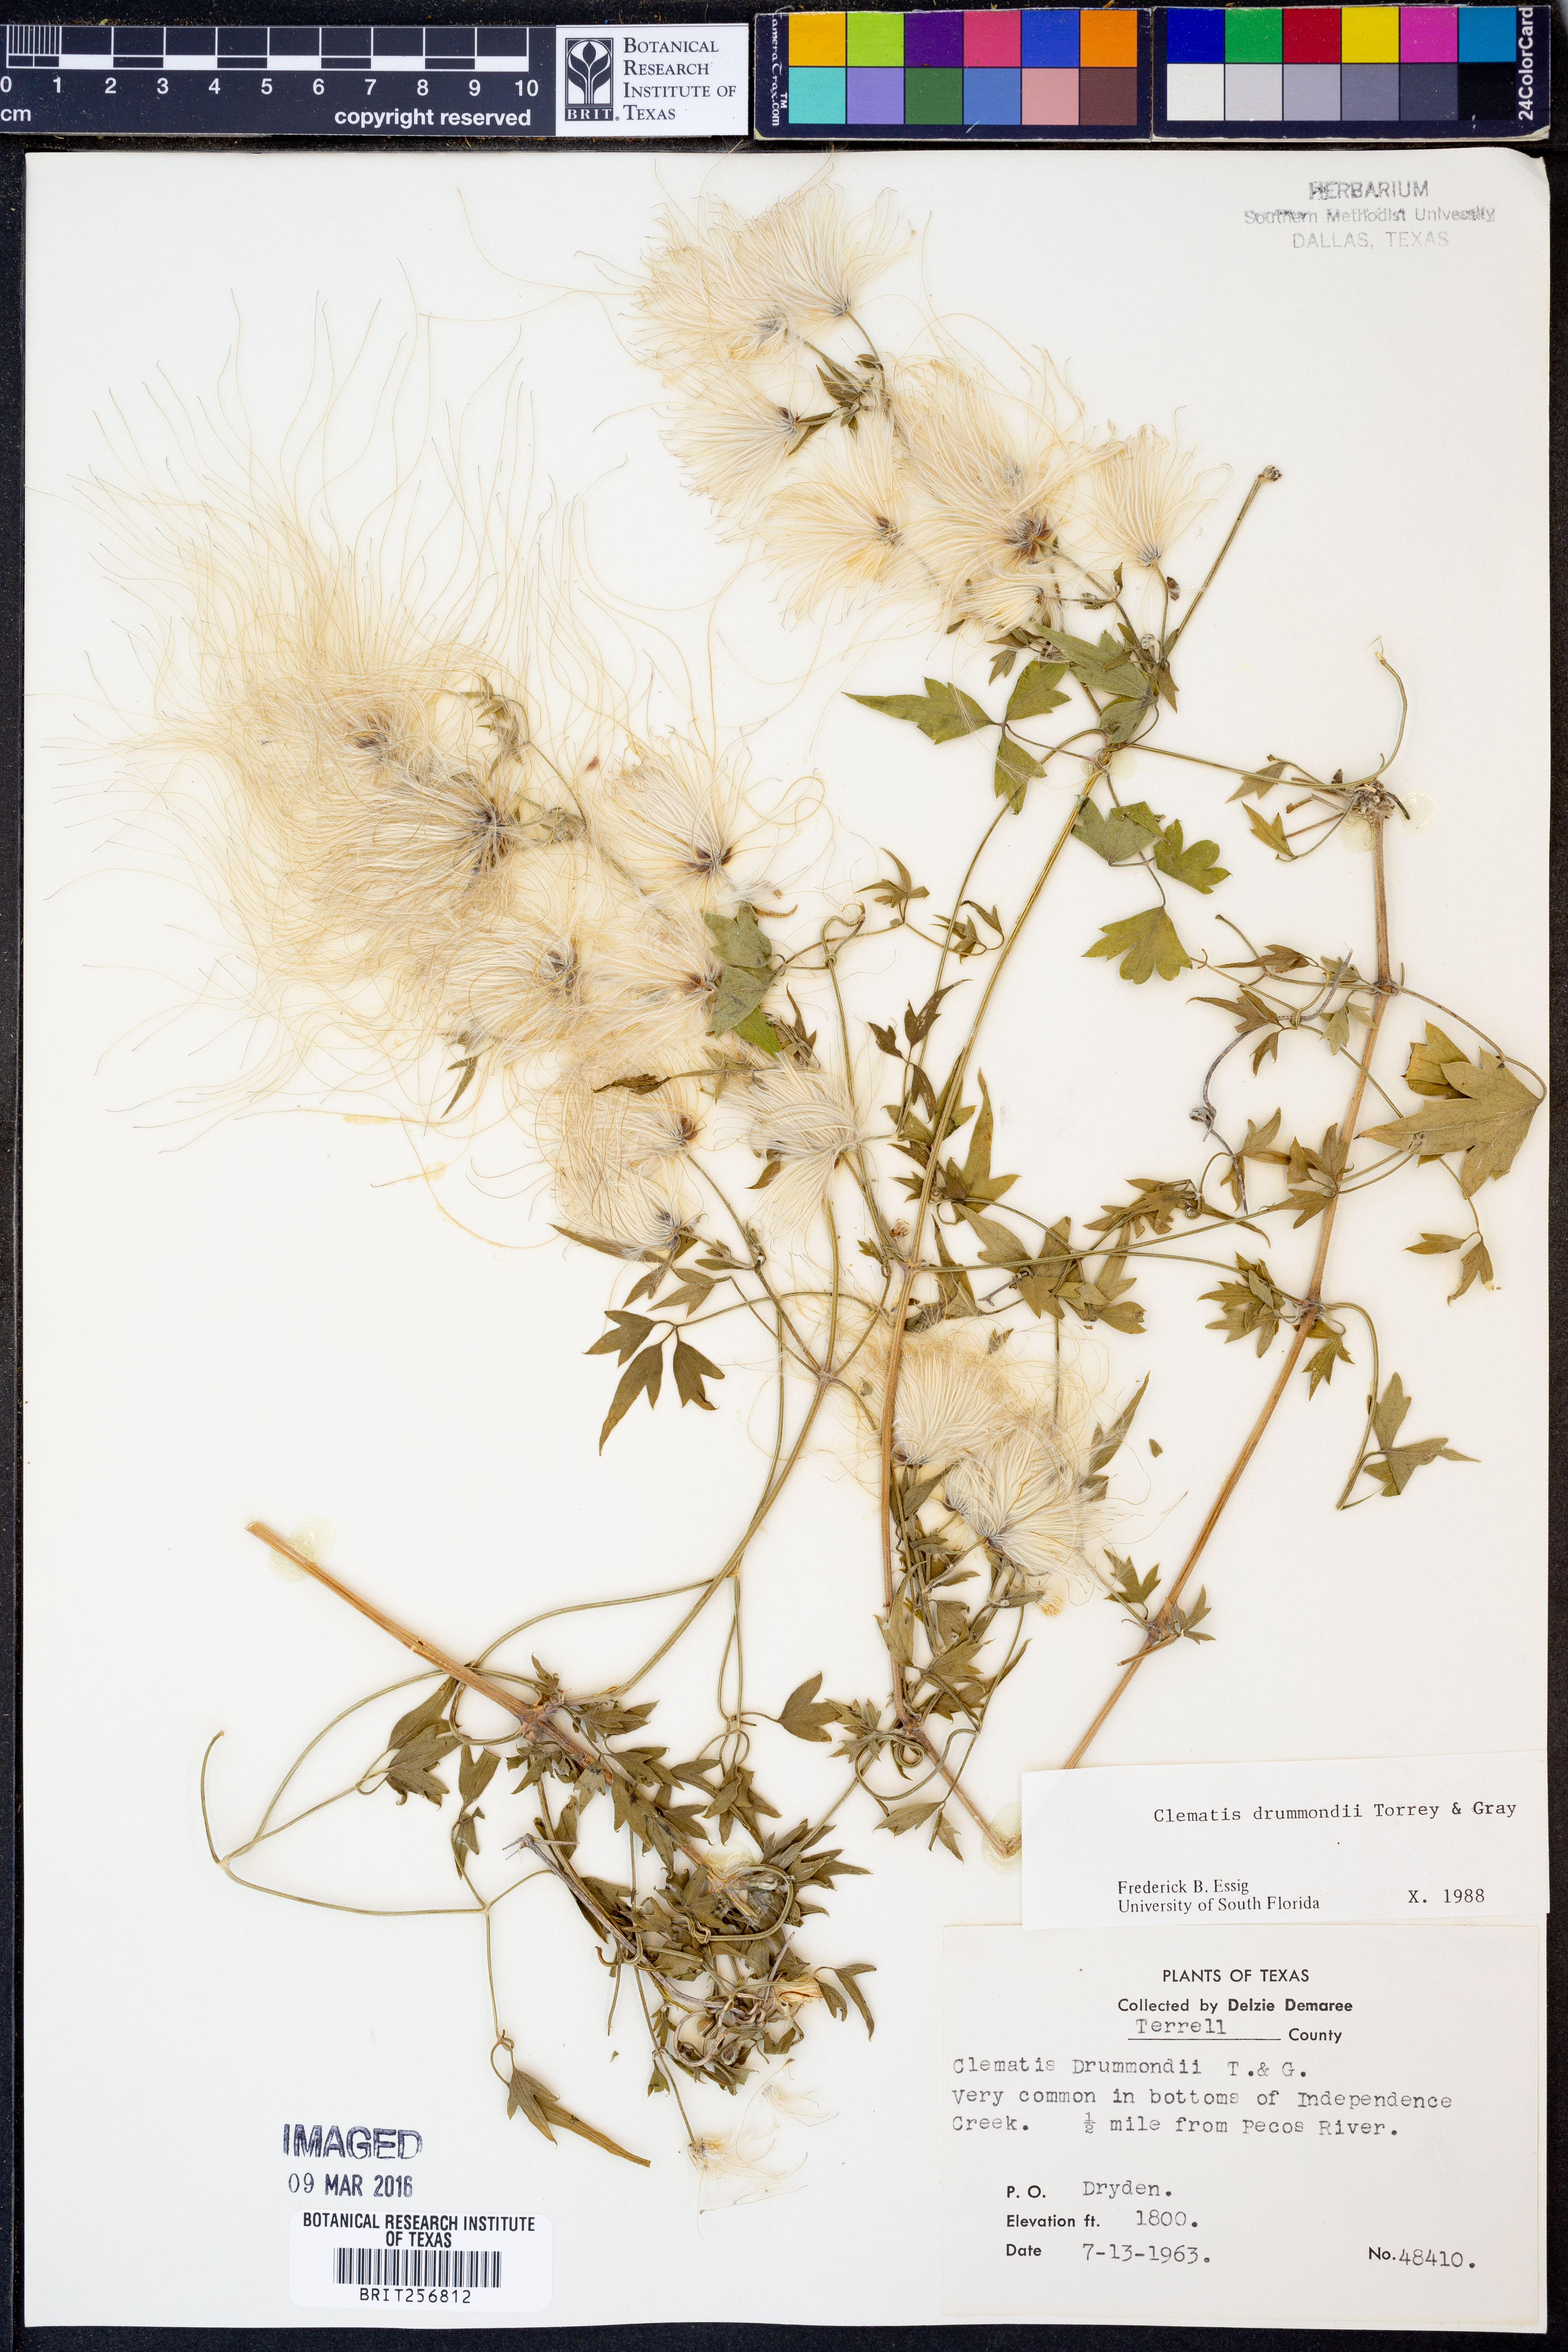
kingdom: Plantae
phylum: Tracheophyta
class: Magnoliopsida
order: Ranunculales
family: Ranunculaceae
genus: Clematis
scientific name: Clematis drummondii
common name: Texas virgin's bower
